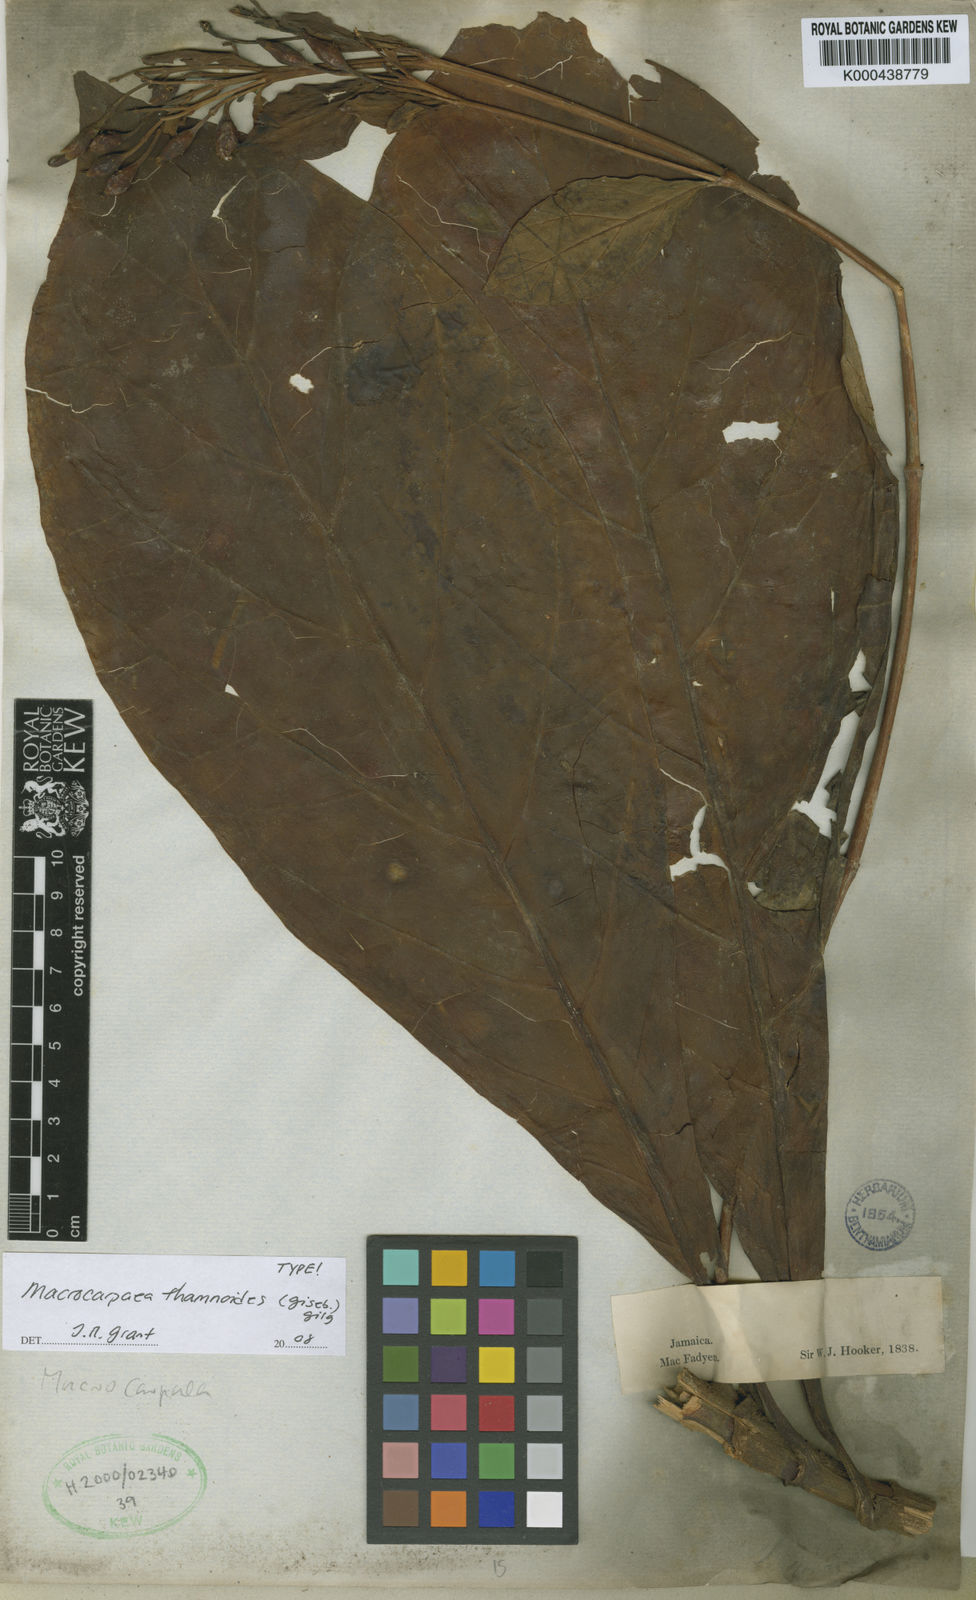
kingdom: Plantae
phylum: Tracheophyta
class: Magnoliopsida
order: Gentianales
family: Gentianaceae
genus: Macrocarpaea
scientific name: Macrocarpaea thamnoides
